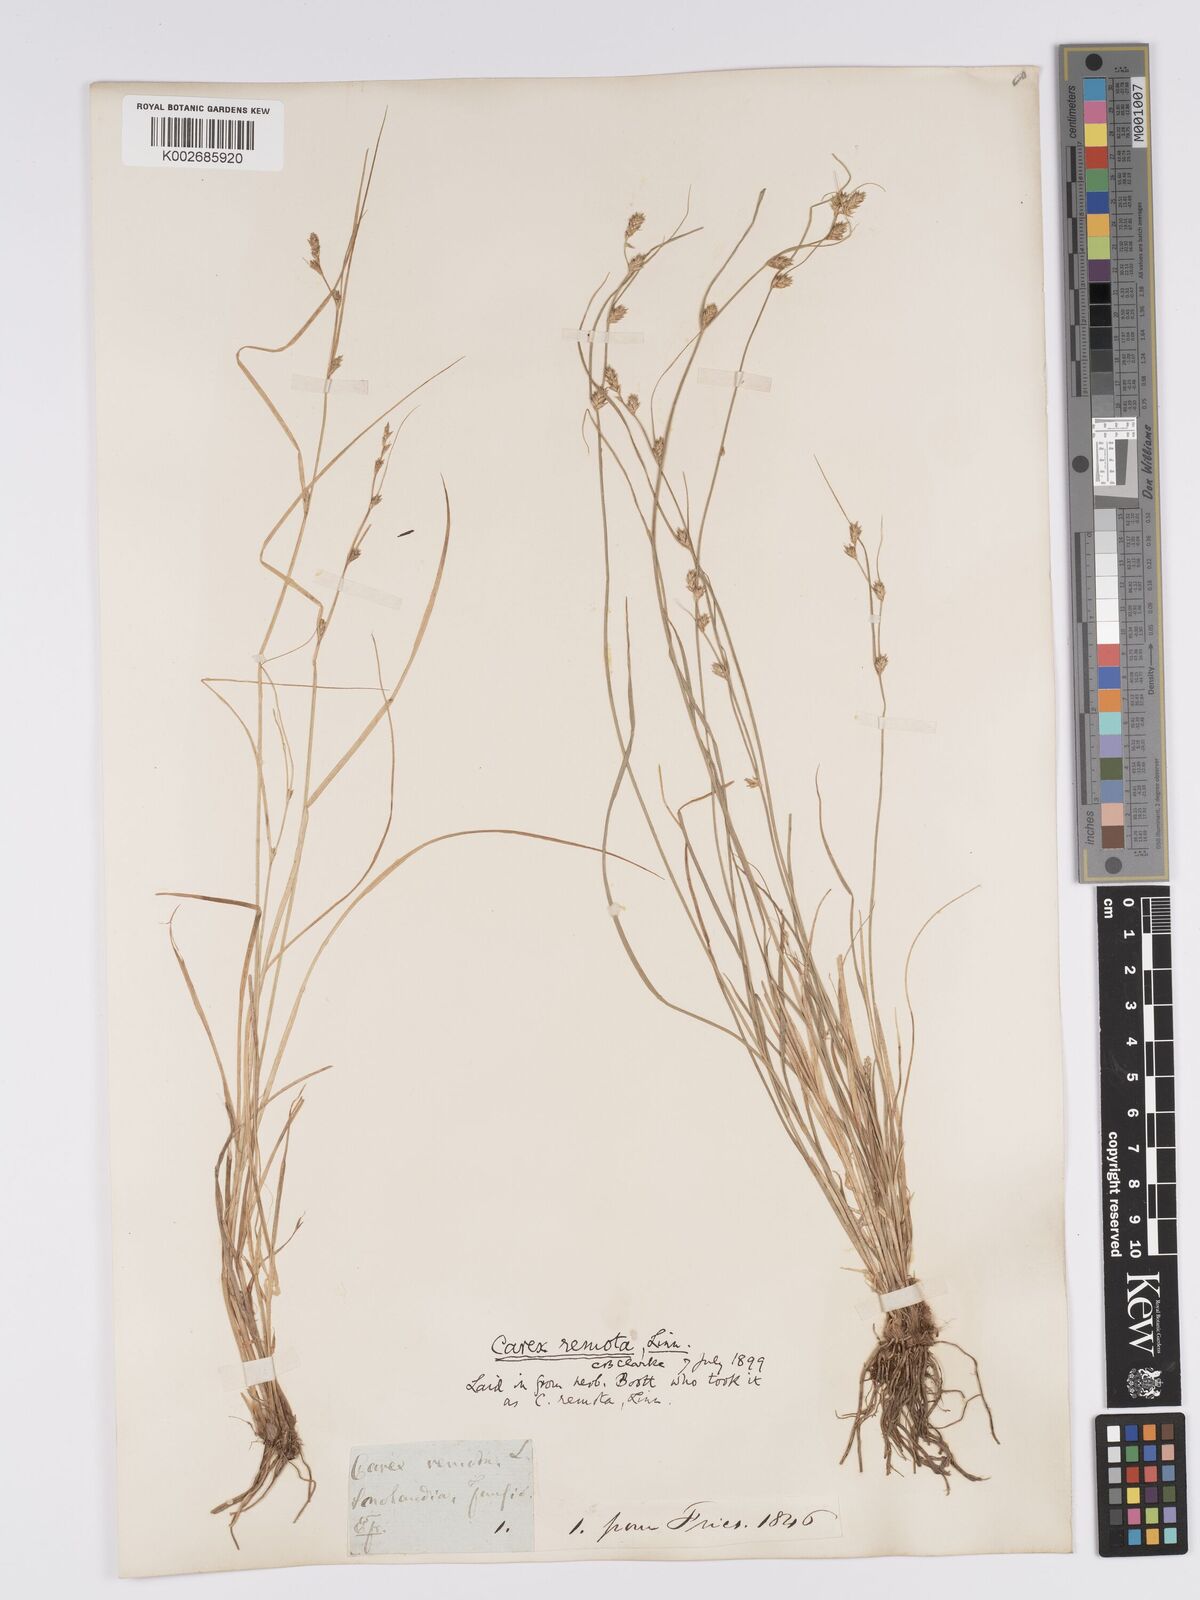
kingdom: Plantae
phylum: Tracheophyta
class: Liliopsida
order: Poales
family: Cyperaceae
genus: Carex
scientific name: Carex remota
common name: Remote sedge
